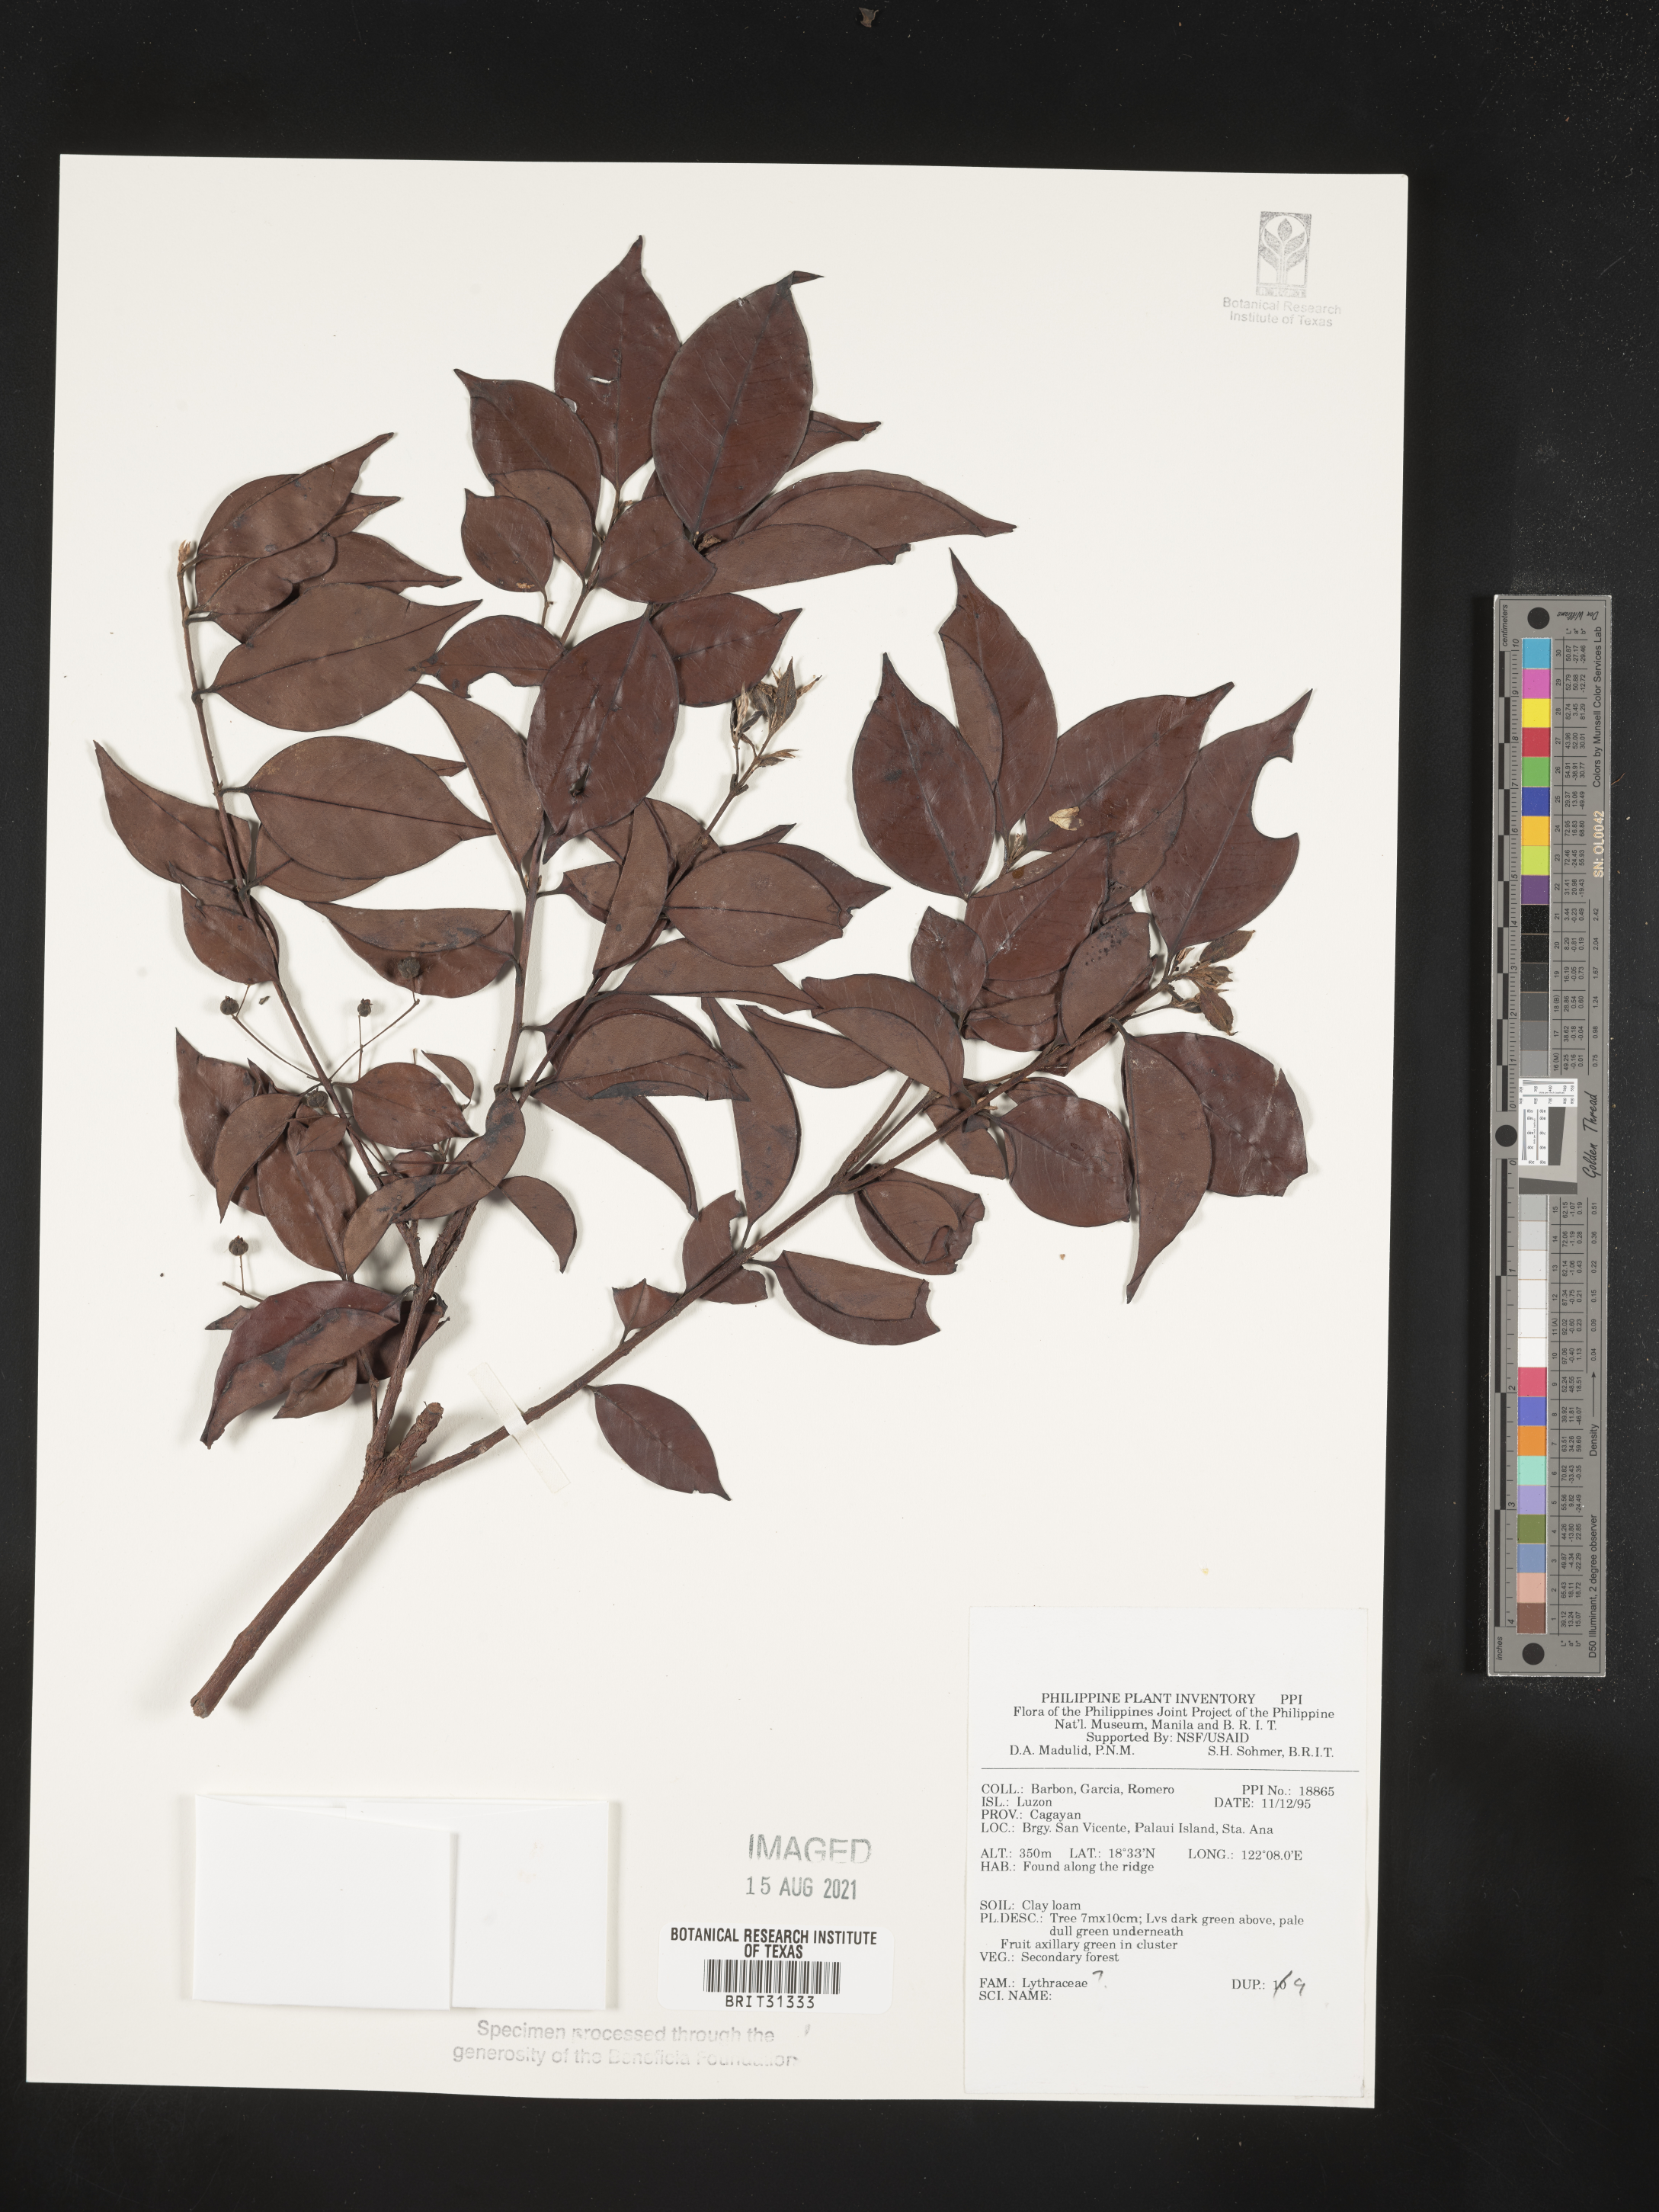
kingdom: Plantae
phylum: Tracheophyta
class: Magnoliopsida
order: Myrtales
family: Lythraceae
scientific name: Lythraceae
